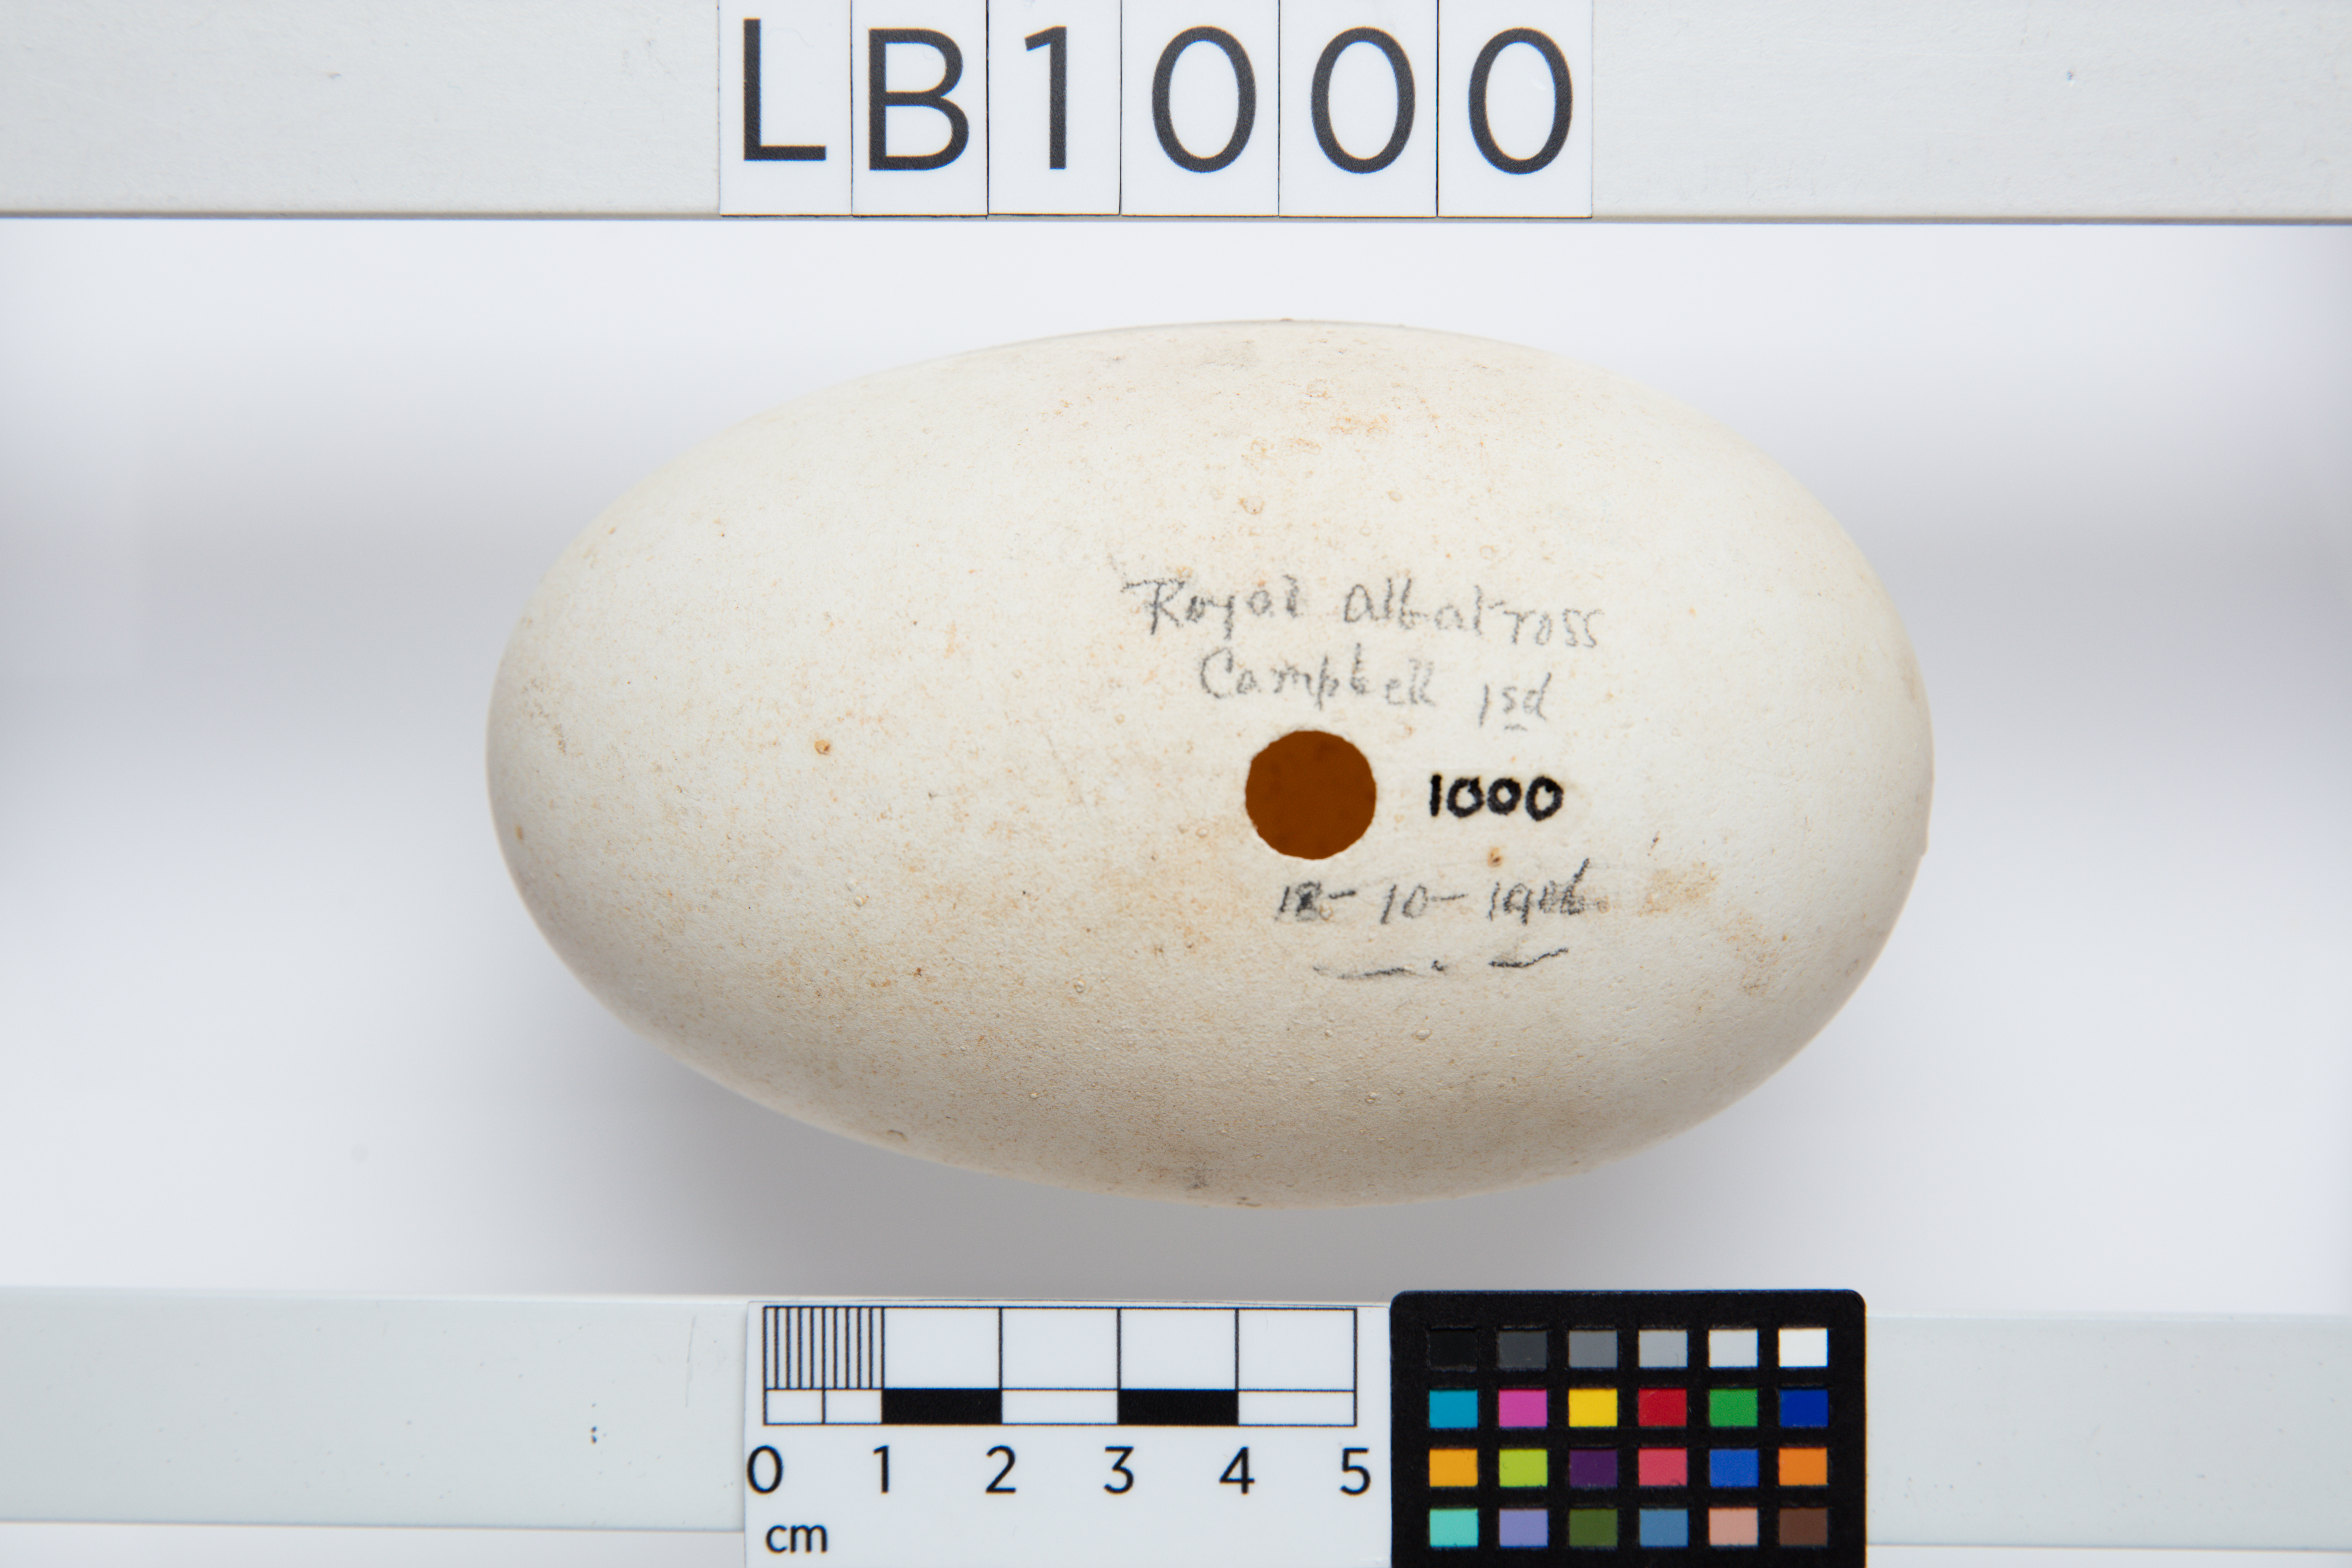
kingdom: Animalia
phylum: Chordata
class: Aves
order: Procellariiformes
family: Diomedeidae
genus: Diomedea
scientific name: Diomedea epomophora
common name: Southern royal albatross
